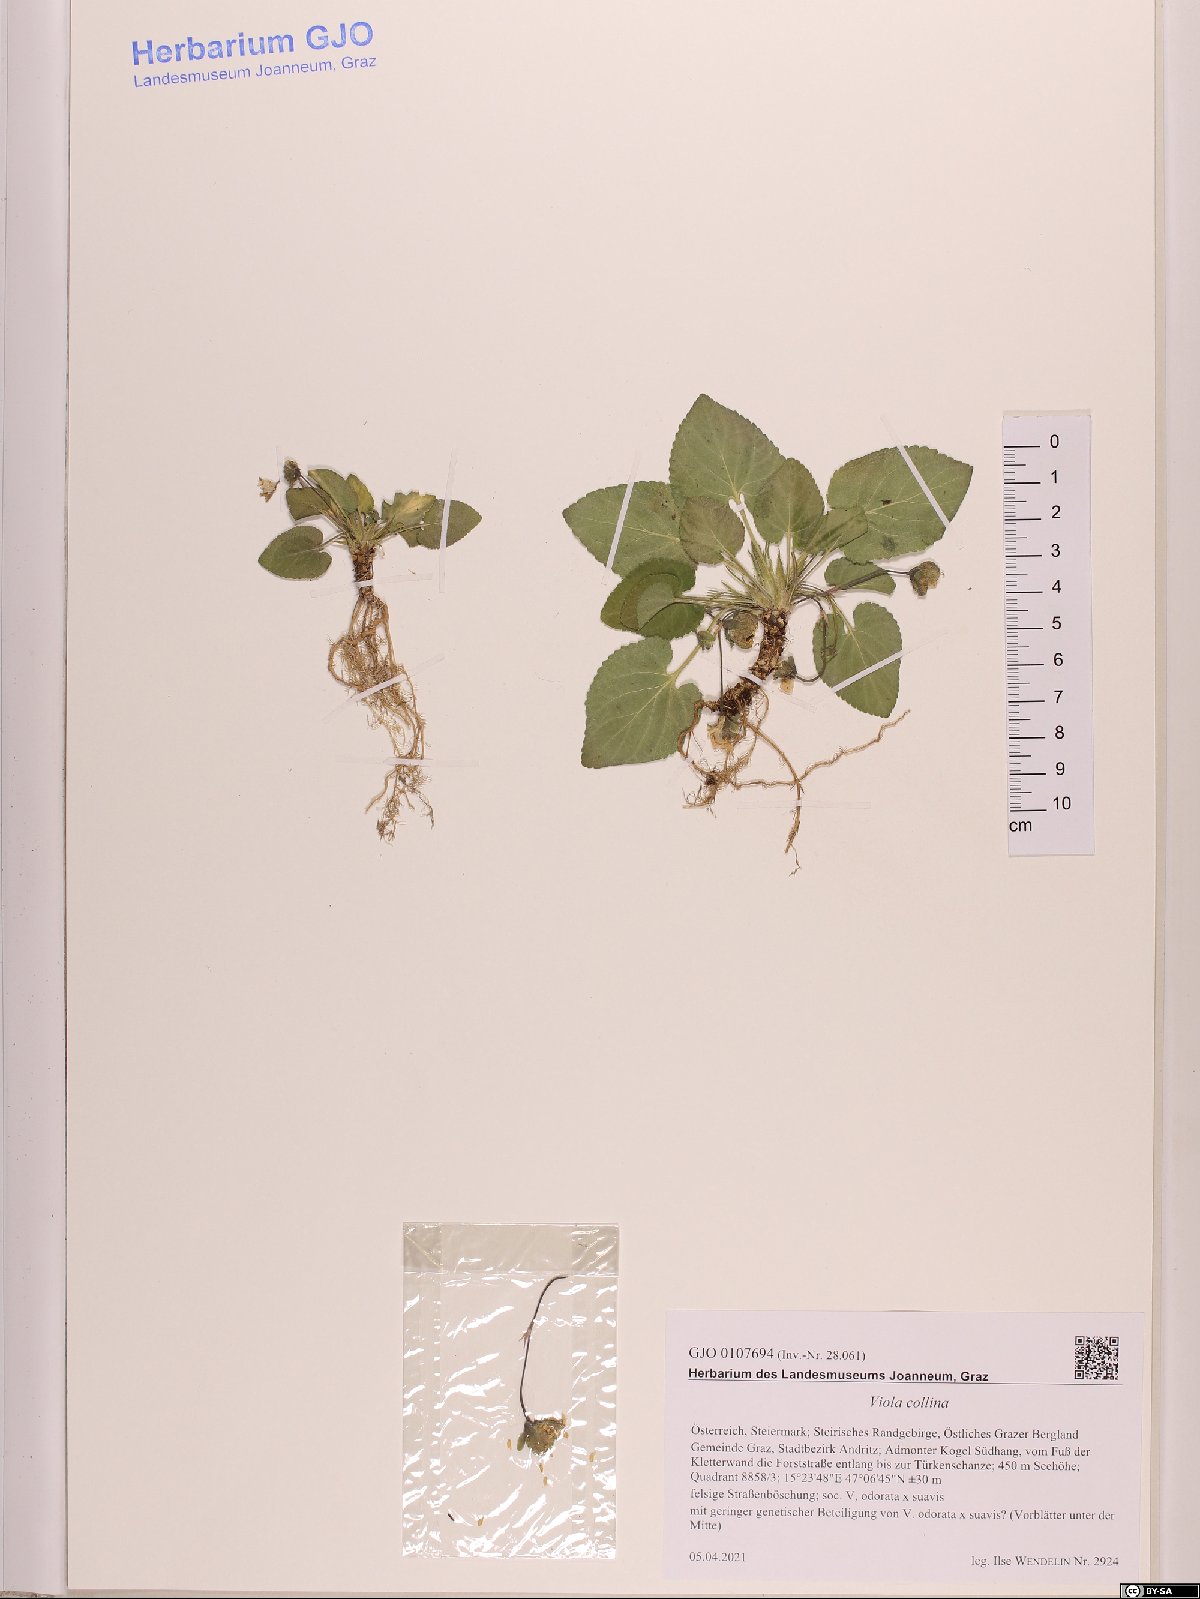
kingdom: Plantae
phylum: Tracheophyta
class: Magnoliopsida
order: Malpighiales
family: Violaceae
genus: Viola
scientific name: Viola collina
